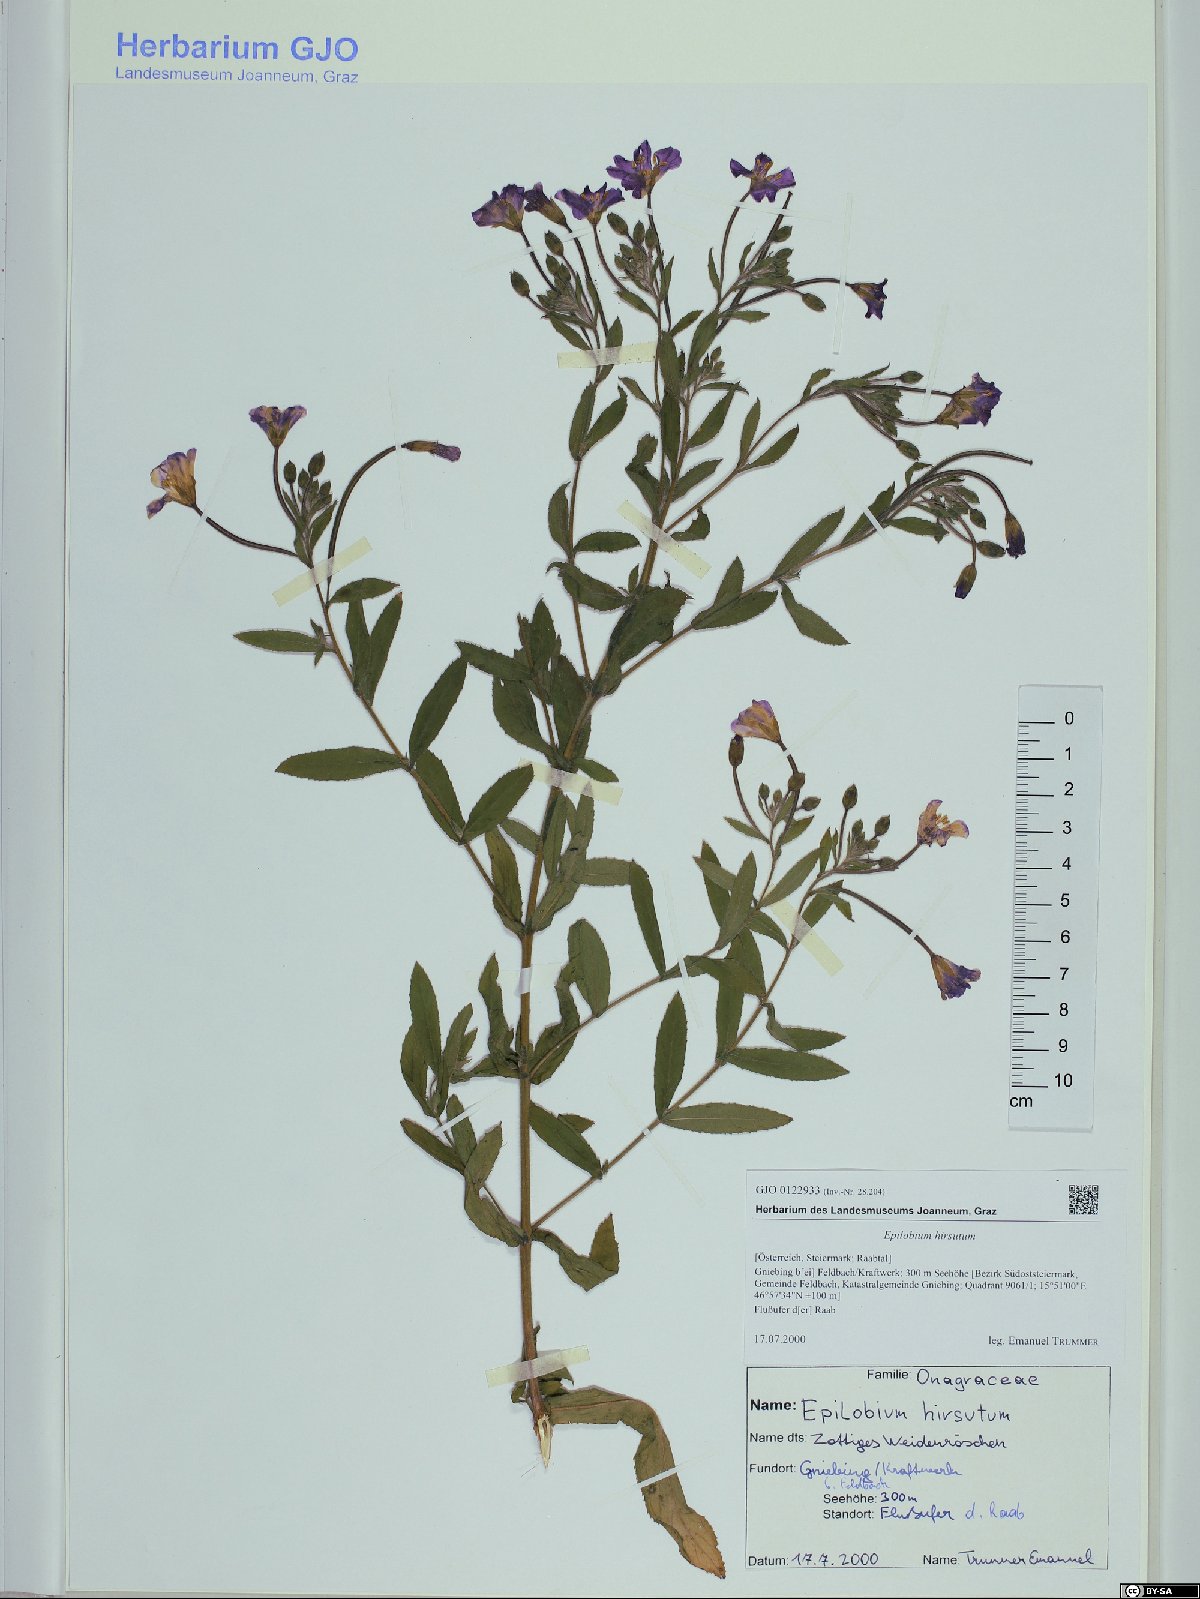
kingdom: Plantae
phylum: Tracheophyta
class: Magnoliopsida
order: Myrtales
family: Onagraceae
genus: Epilobium
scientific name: Epilobium hirsutum
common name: Great willowherb
